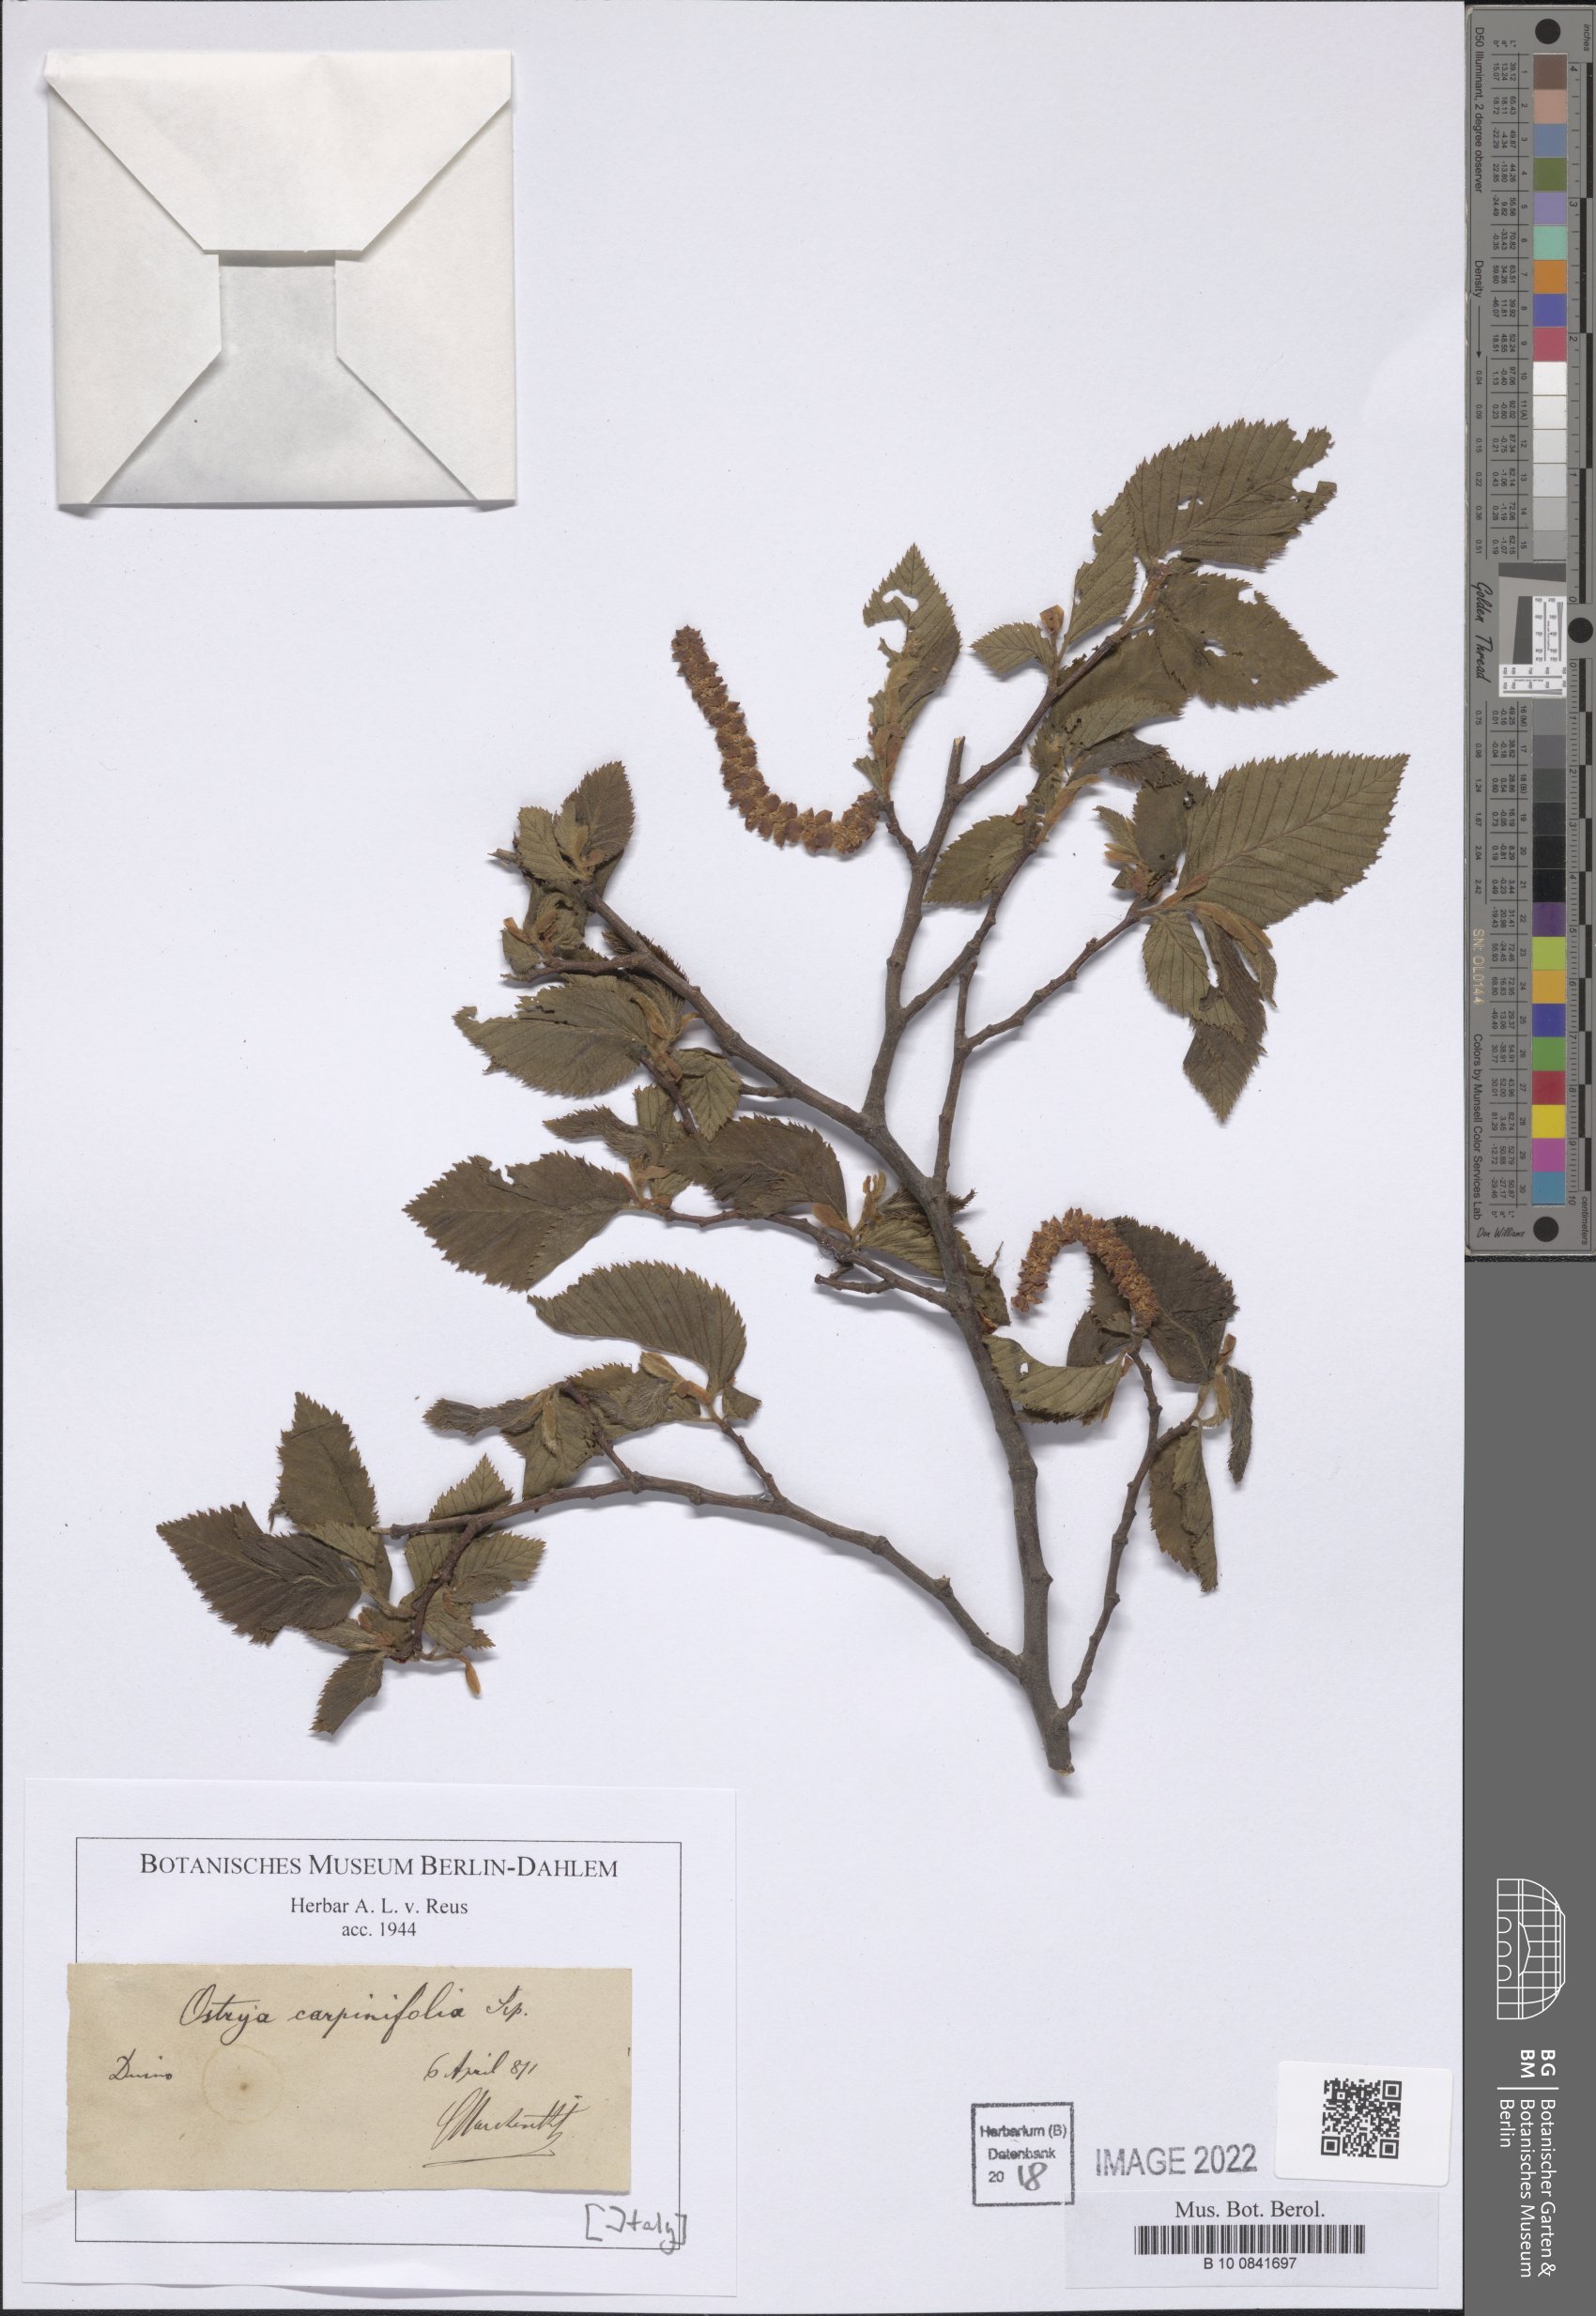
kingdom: Plantae
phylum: Tracheophyta
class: Magnoliopsida
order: Fagales
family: Betulaceae
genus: Ostrya
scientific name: Ostrya carpinifolia
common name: European hop-hornbeam
